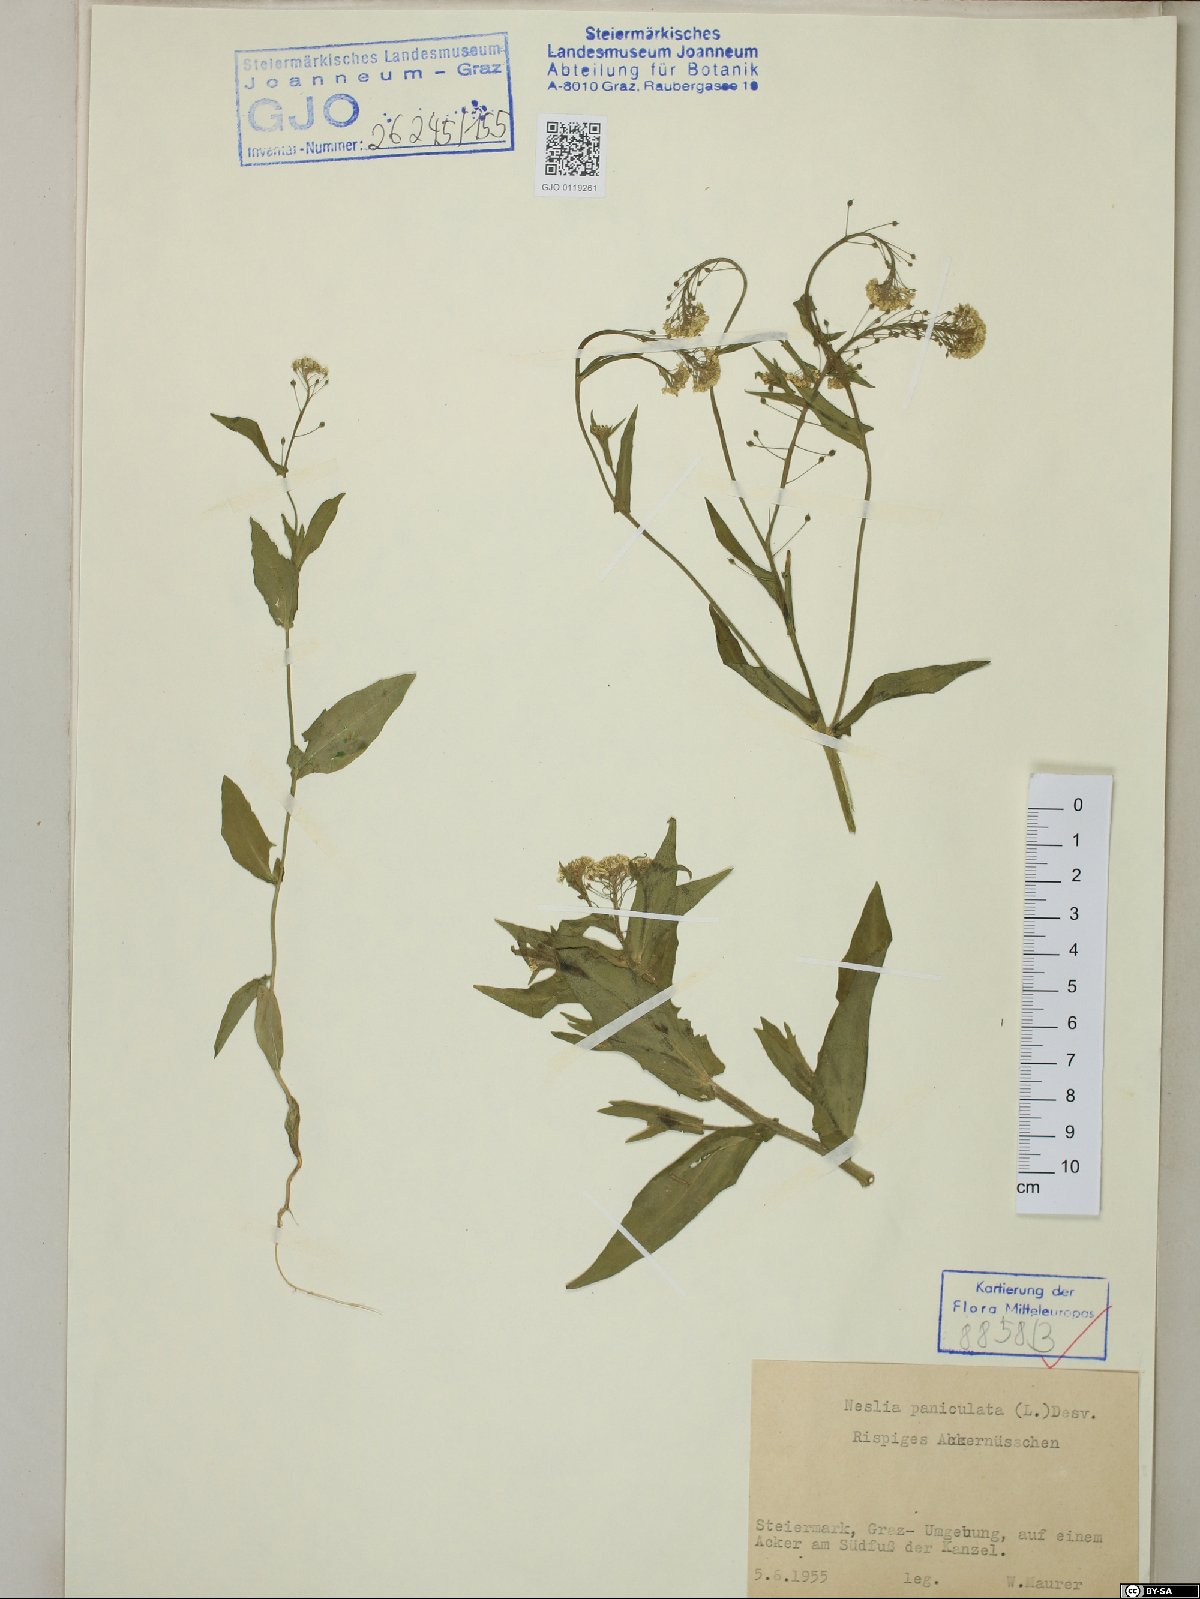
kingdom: Plantae
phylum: Tracheophyta
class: Magnoliopsida
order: Brassicales
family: Brassicaceae
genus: Neslia
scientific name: Neslia paniculata
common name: Ball mustard
